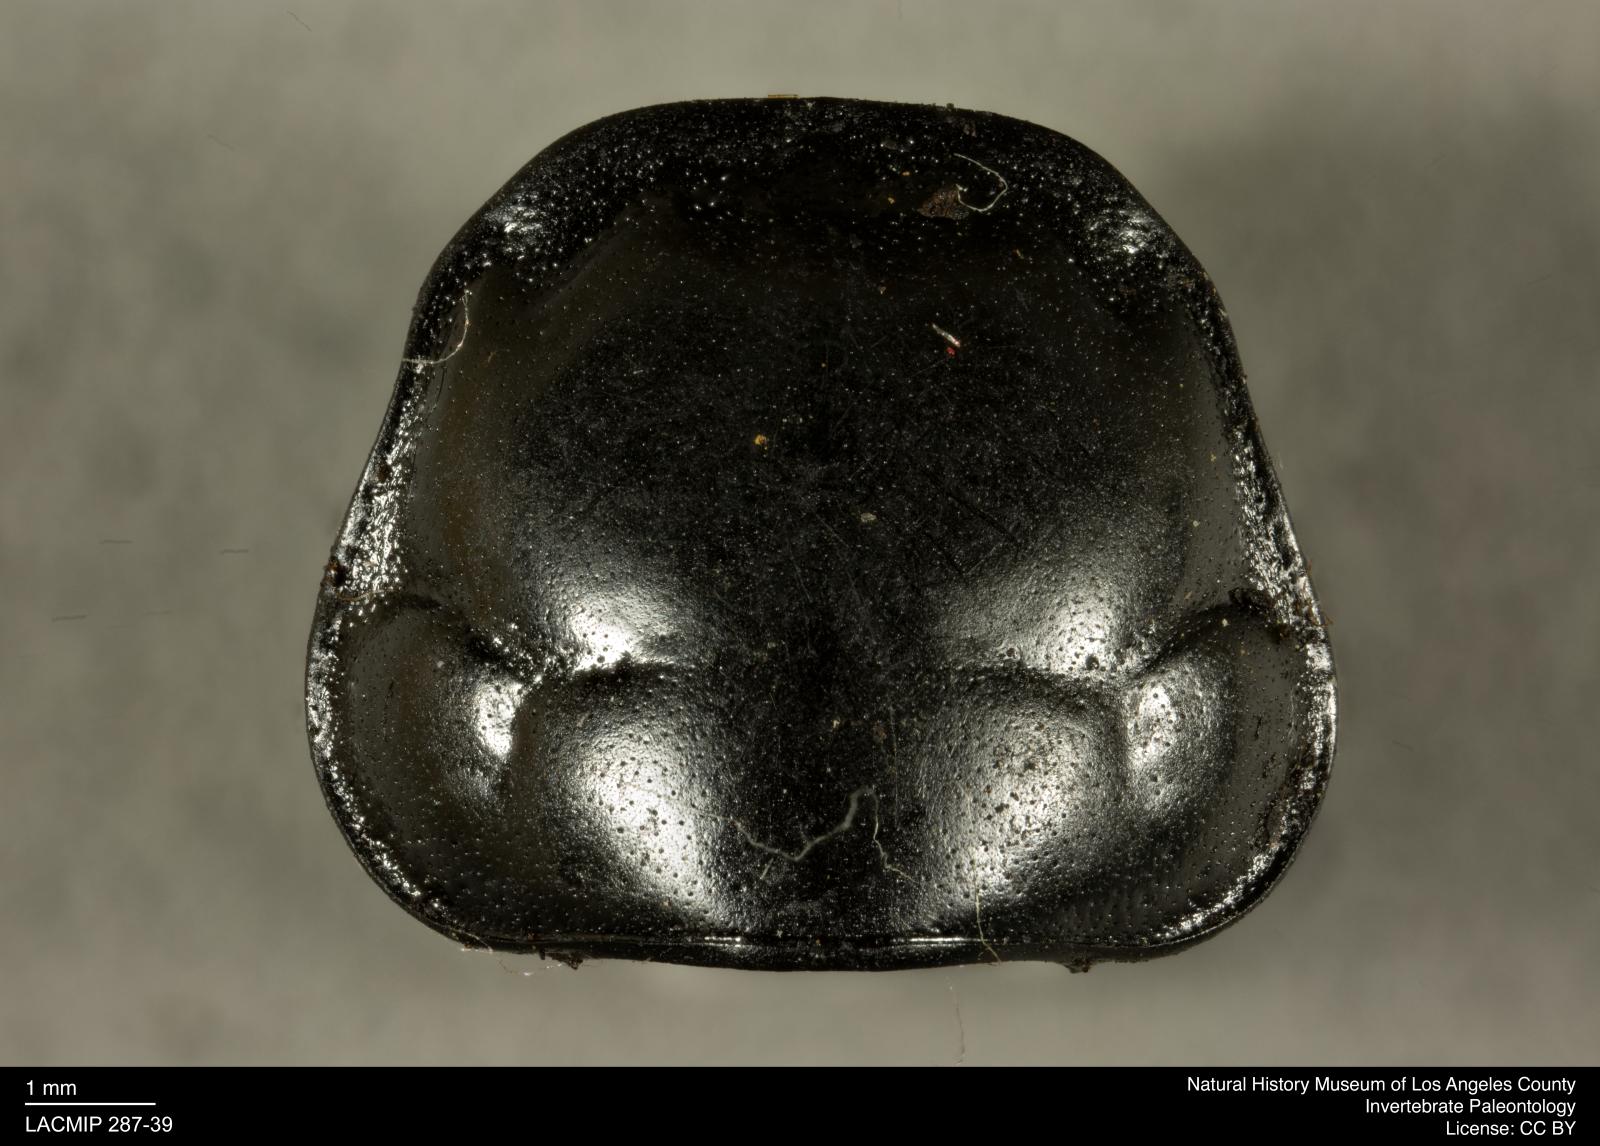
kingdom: Animalia
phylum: Arthropoda
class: Insecta
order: Coleoptera
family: Staphylinidae
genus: Nicrophorus
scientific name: Nicrophorus marginatus
